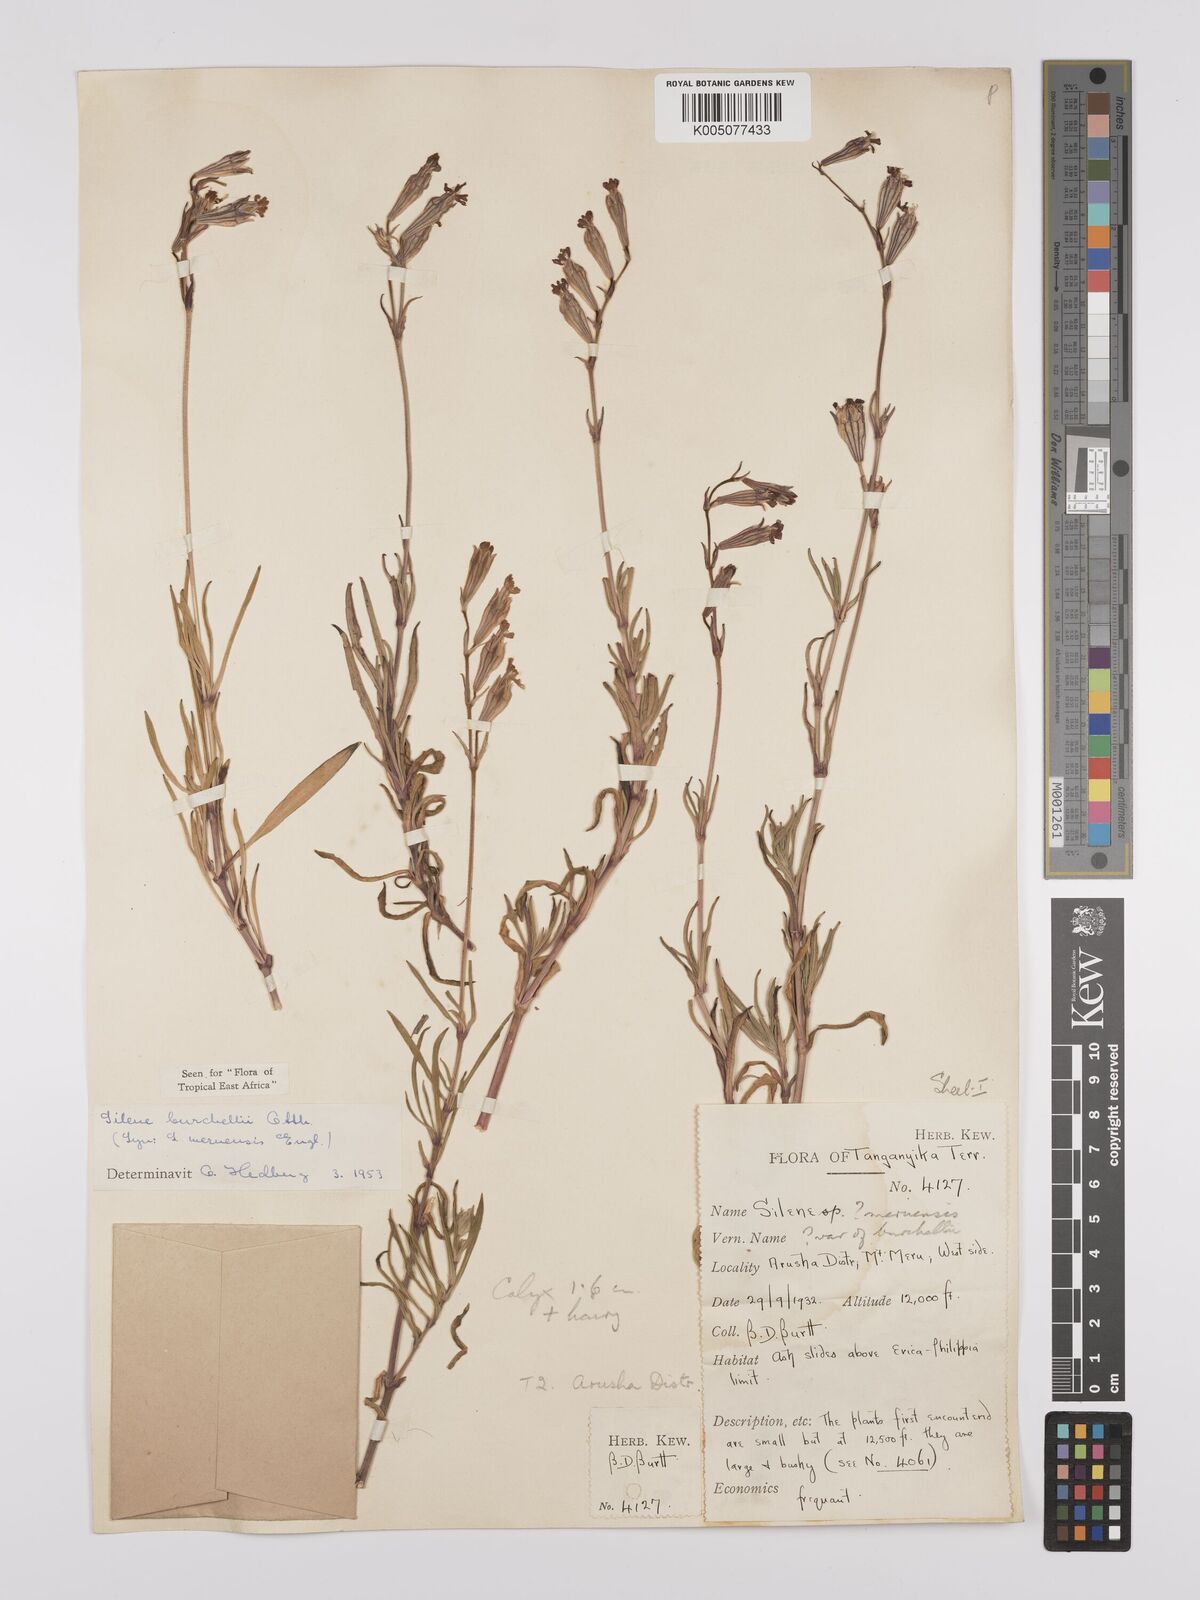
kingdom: Plantae
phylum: Tracheophyta
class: Magnoliopsida
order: Caryophyllales
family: Caryophyllaceae
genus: Silene
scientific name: Silene burchellii
